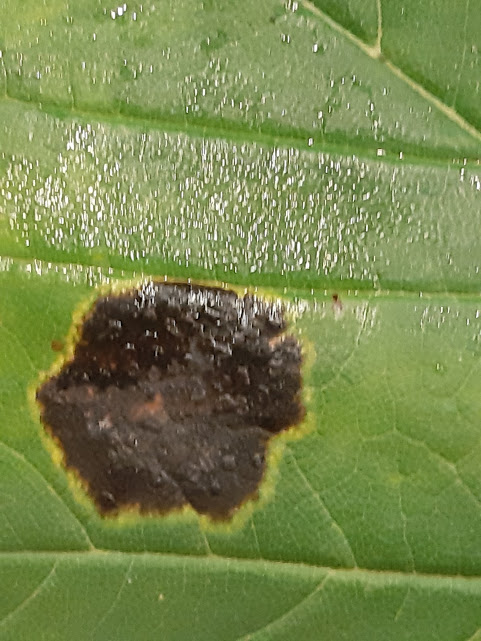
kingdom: Fungi
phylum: Ascomycota
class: Leotiomycetes
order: Rhytismatales
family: Rhytismataceae
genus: Rhytisma
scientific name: Rhytisma acerinum
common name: ahorn-rynkeplet
